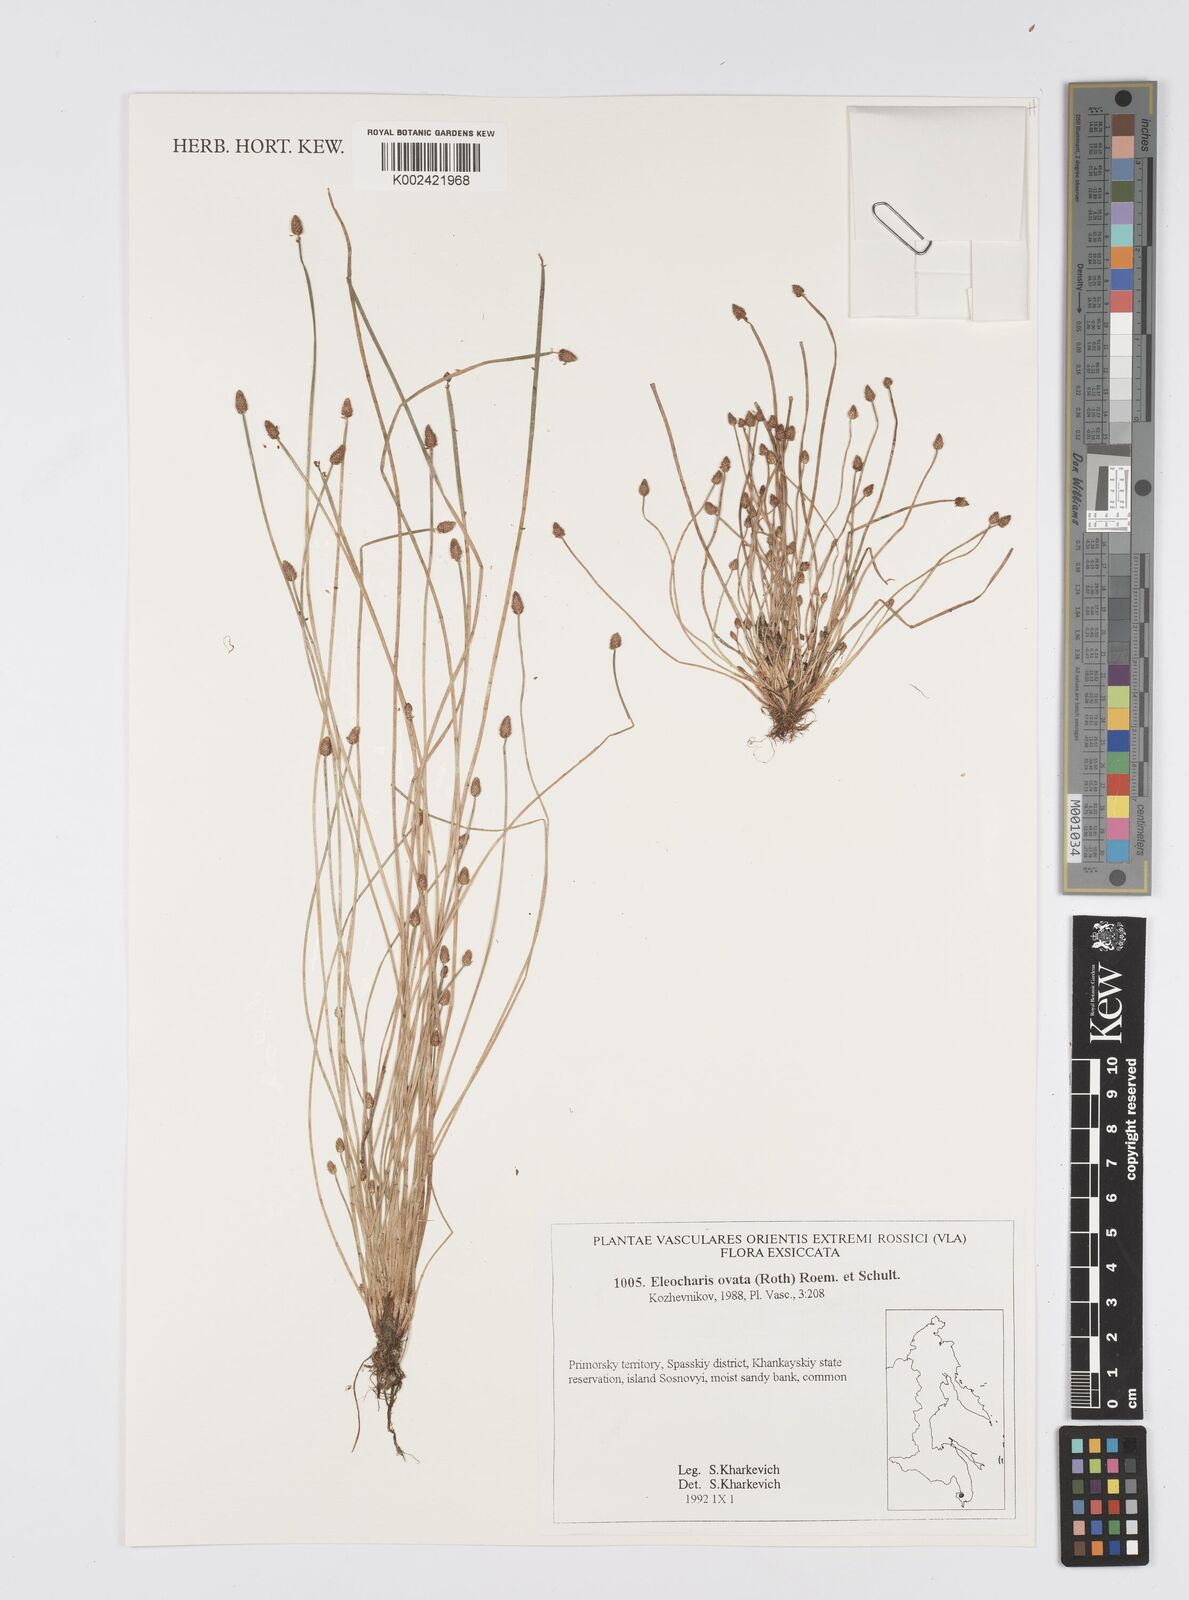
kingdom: Plantae
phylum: Tracheophyta
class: Liliopsida
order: Poales
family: Cyperaceae
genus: Eleocharis
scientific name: Eleocharis ovata
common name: Oval spike-rush
